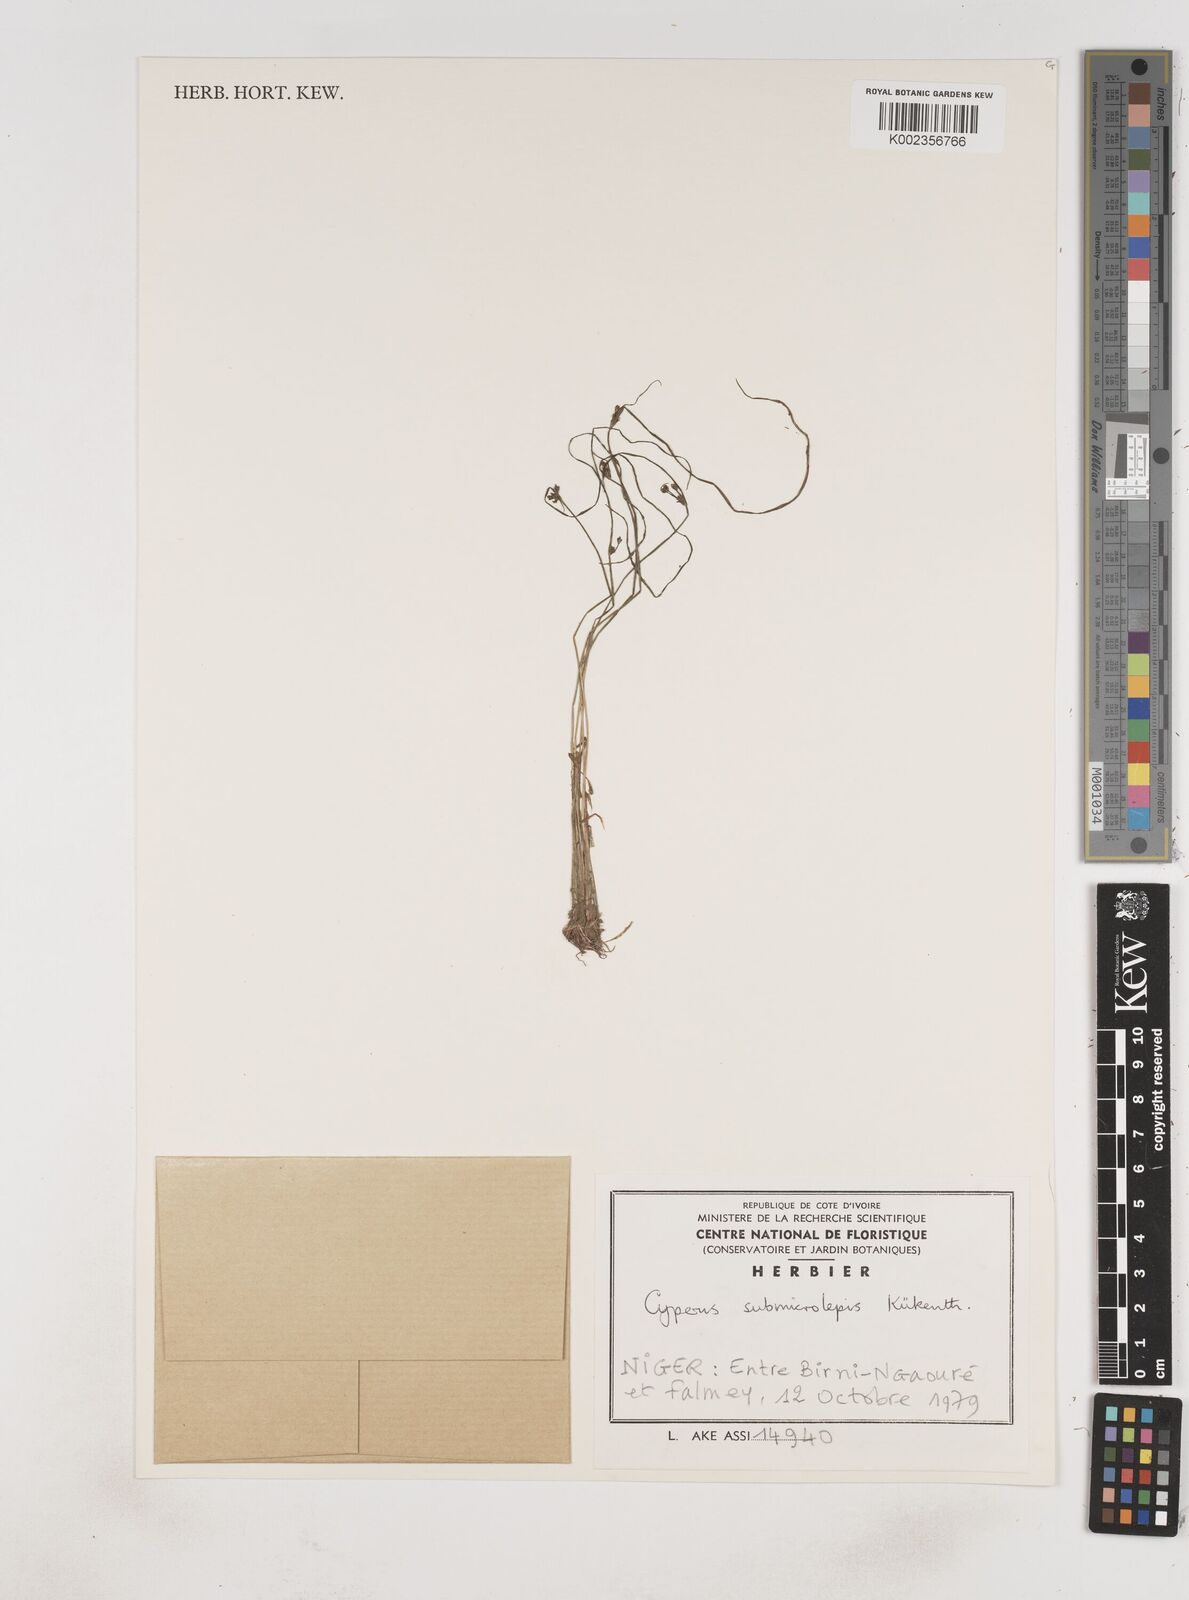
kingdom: Plantae
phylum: Tracheophyta
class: Liliopsida
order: Poales
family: Cyperaceae
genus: Cyperus
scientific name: Cyperus submicrolepis
